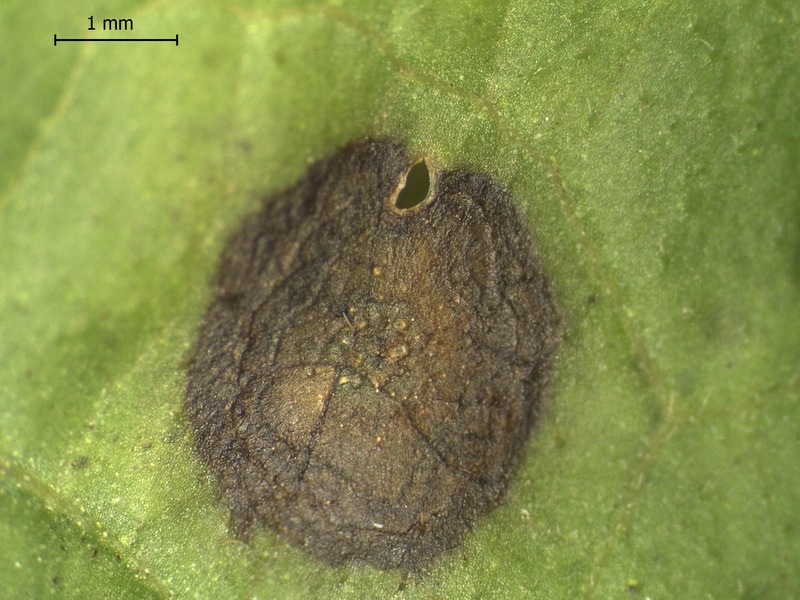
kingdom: Fungi
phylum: Ascomycota
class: Sordariomycetes
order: Diaporthales
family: Diaporthaceae
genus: Diaporthe
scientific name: Diaporthe dulcamarae
